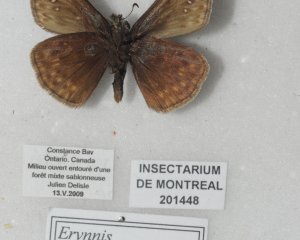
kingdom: Animalia
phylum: Arthropoda
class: Insecta
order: Lepidoptera
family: Hesperiidae
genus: Gesta
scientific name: Gesta
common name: Juvenal's Duskywing
